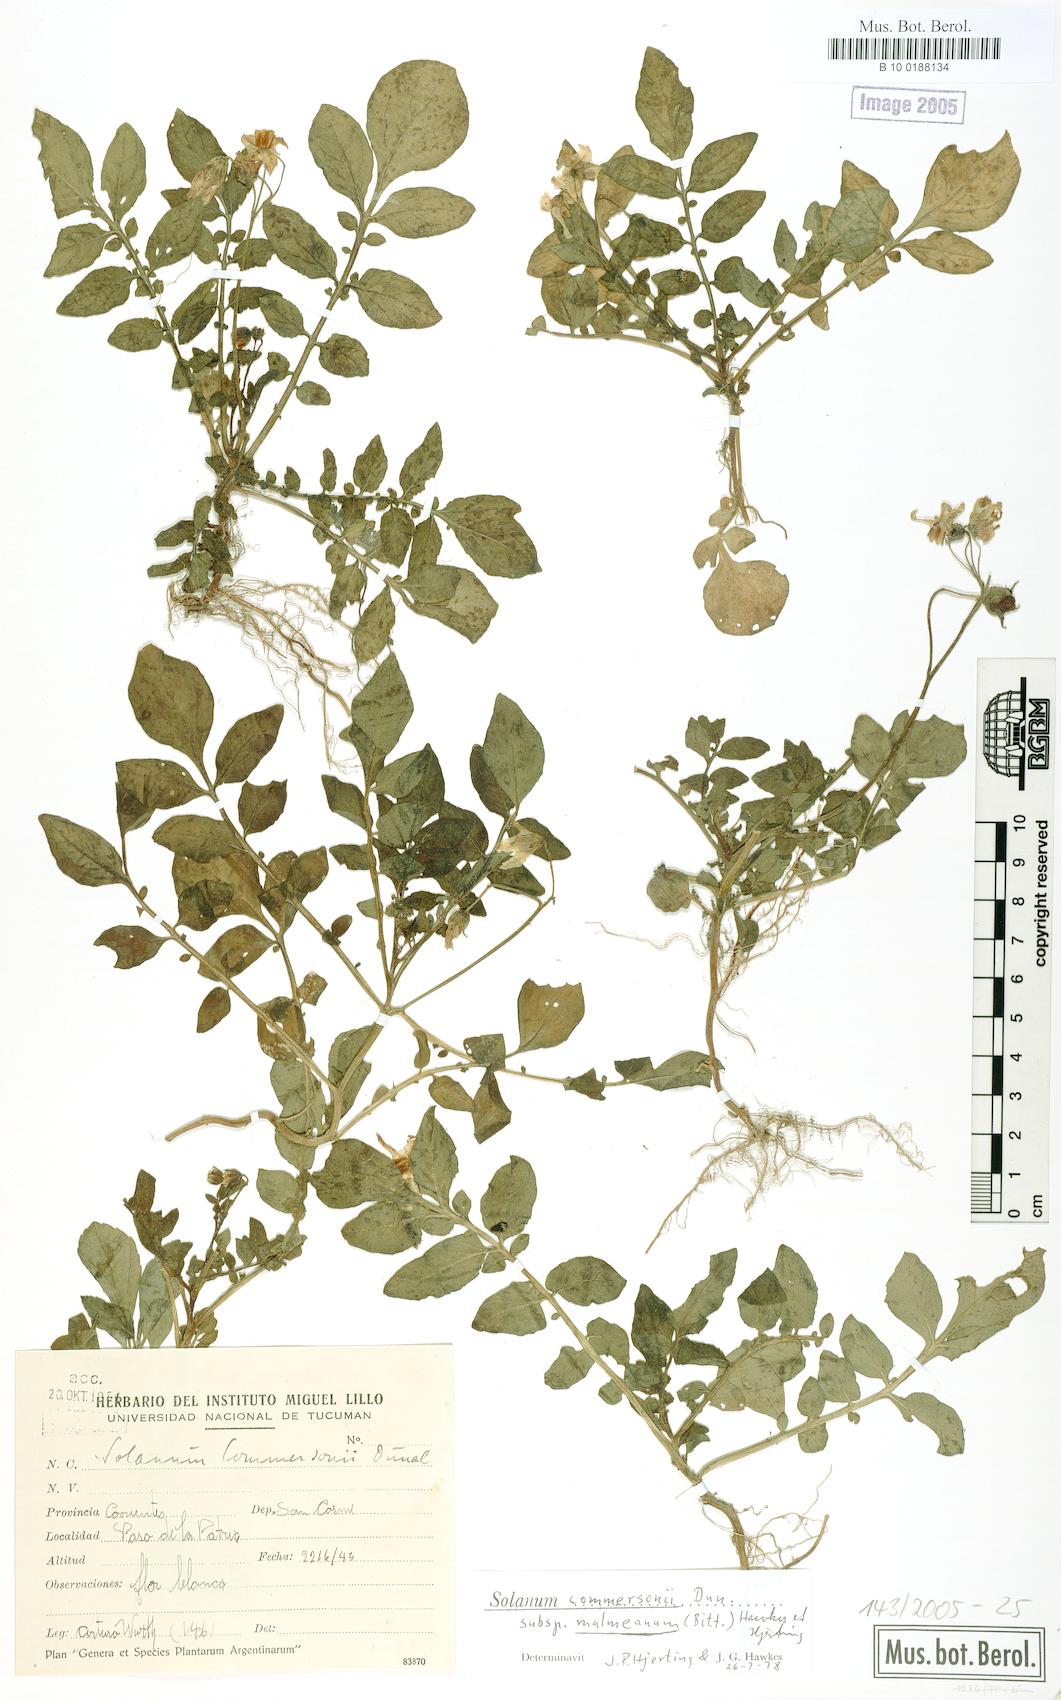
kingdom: Plantae
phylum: Tracheophyta
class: Magnoliopsida
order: Solanales
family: Solanaceae
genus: Solanum
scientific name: Solanum malmeanum
